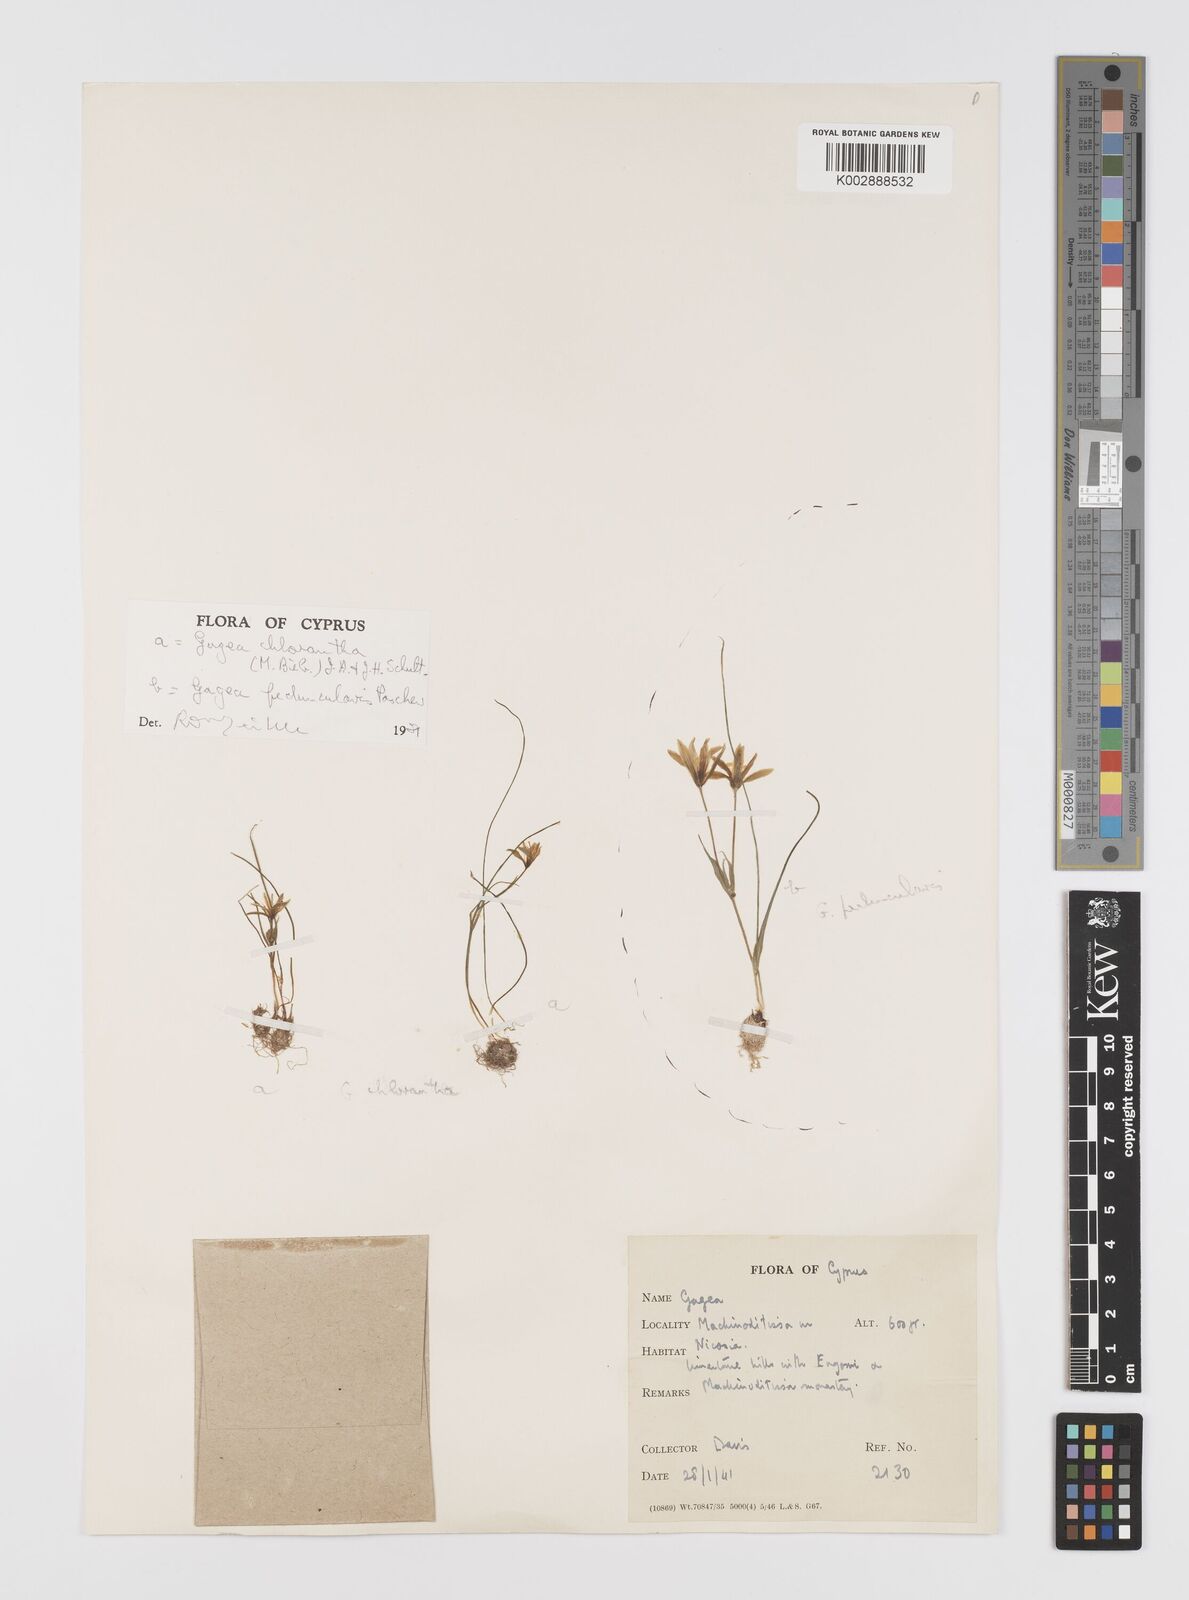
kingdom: Plantae
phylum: Tracheophyta
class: Liliopsida
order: Liliales
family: Liliaceae
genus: Gagea
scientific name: Gagea chlorantha
